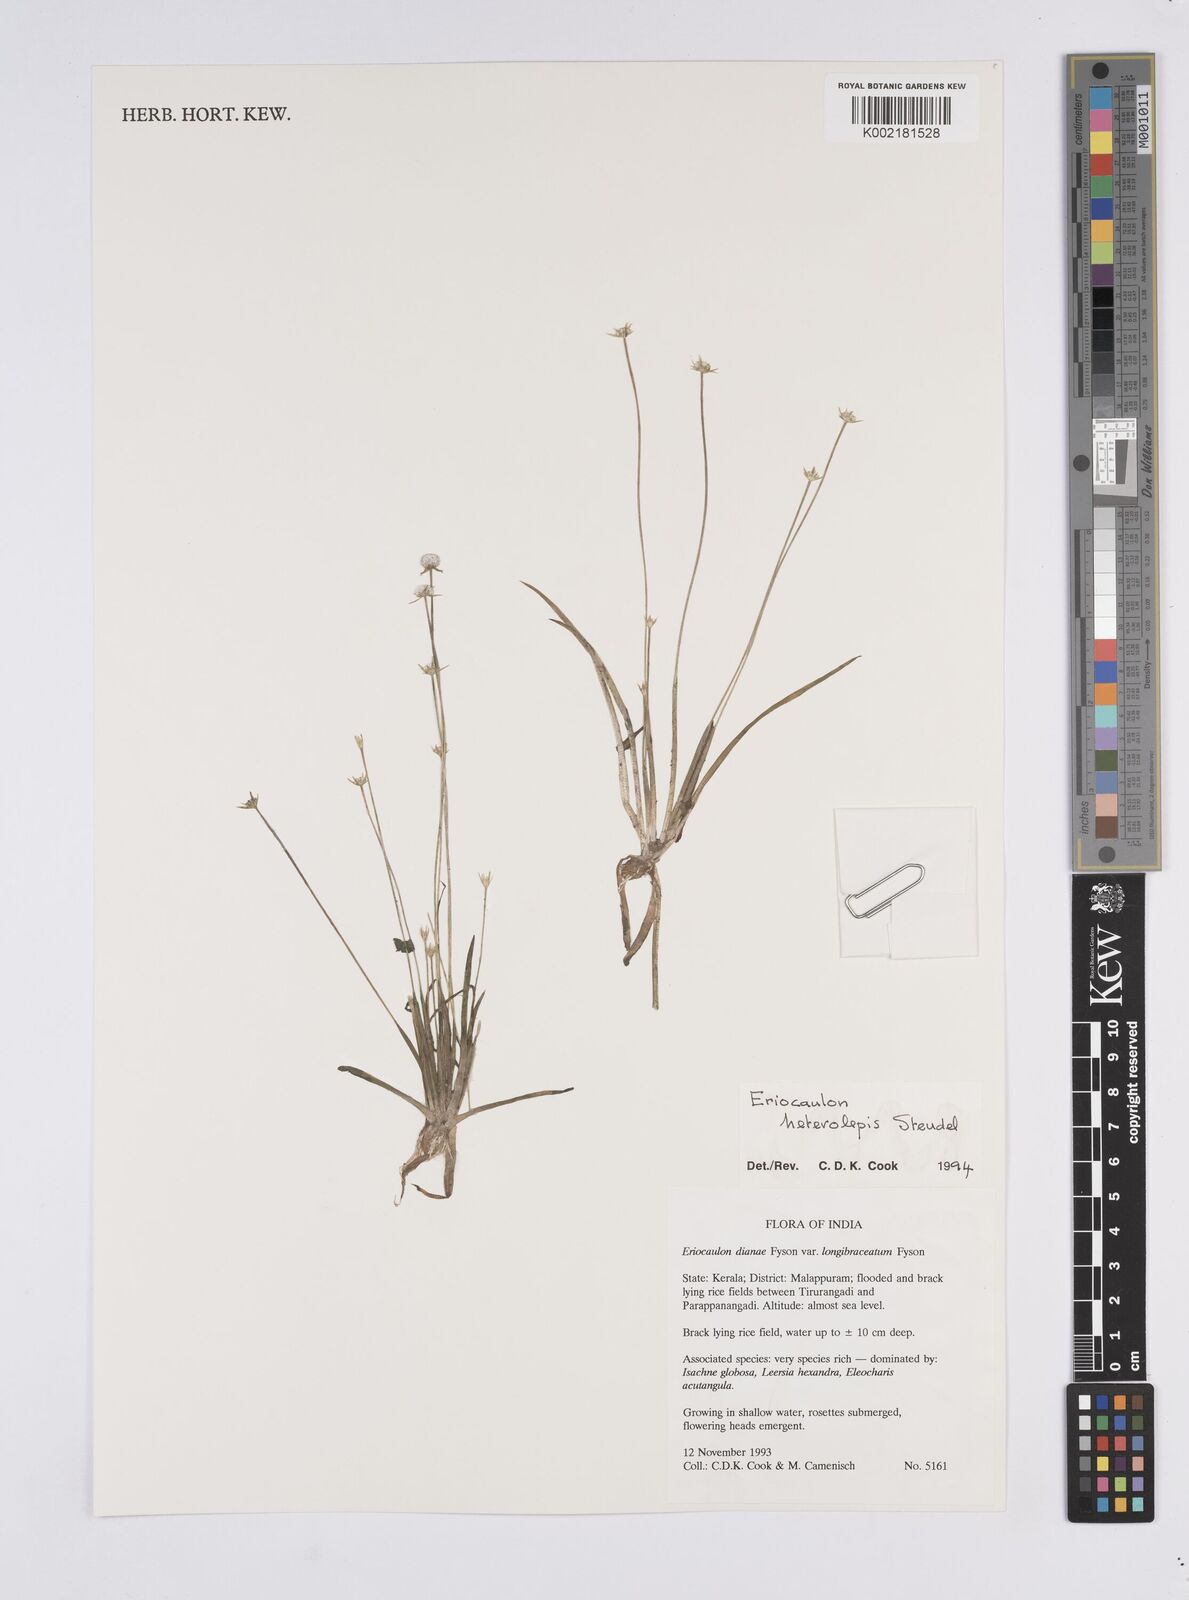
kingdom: Plantae
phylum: Tracheophyta
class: Liliopsida
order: Poales
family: Eriocaulaceae
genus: Eriocaulon
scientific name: Eriocaulon heterolepis
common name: Buttonhead pipewort
